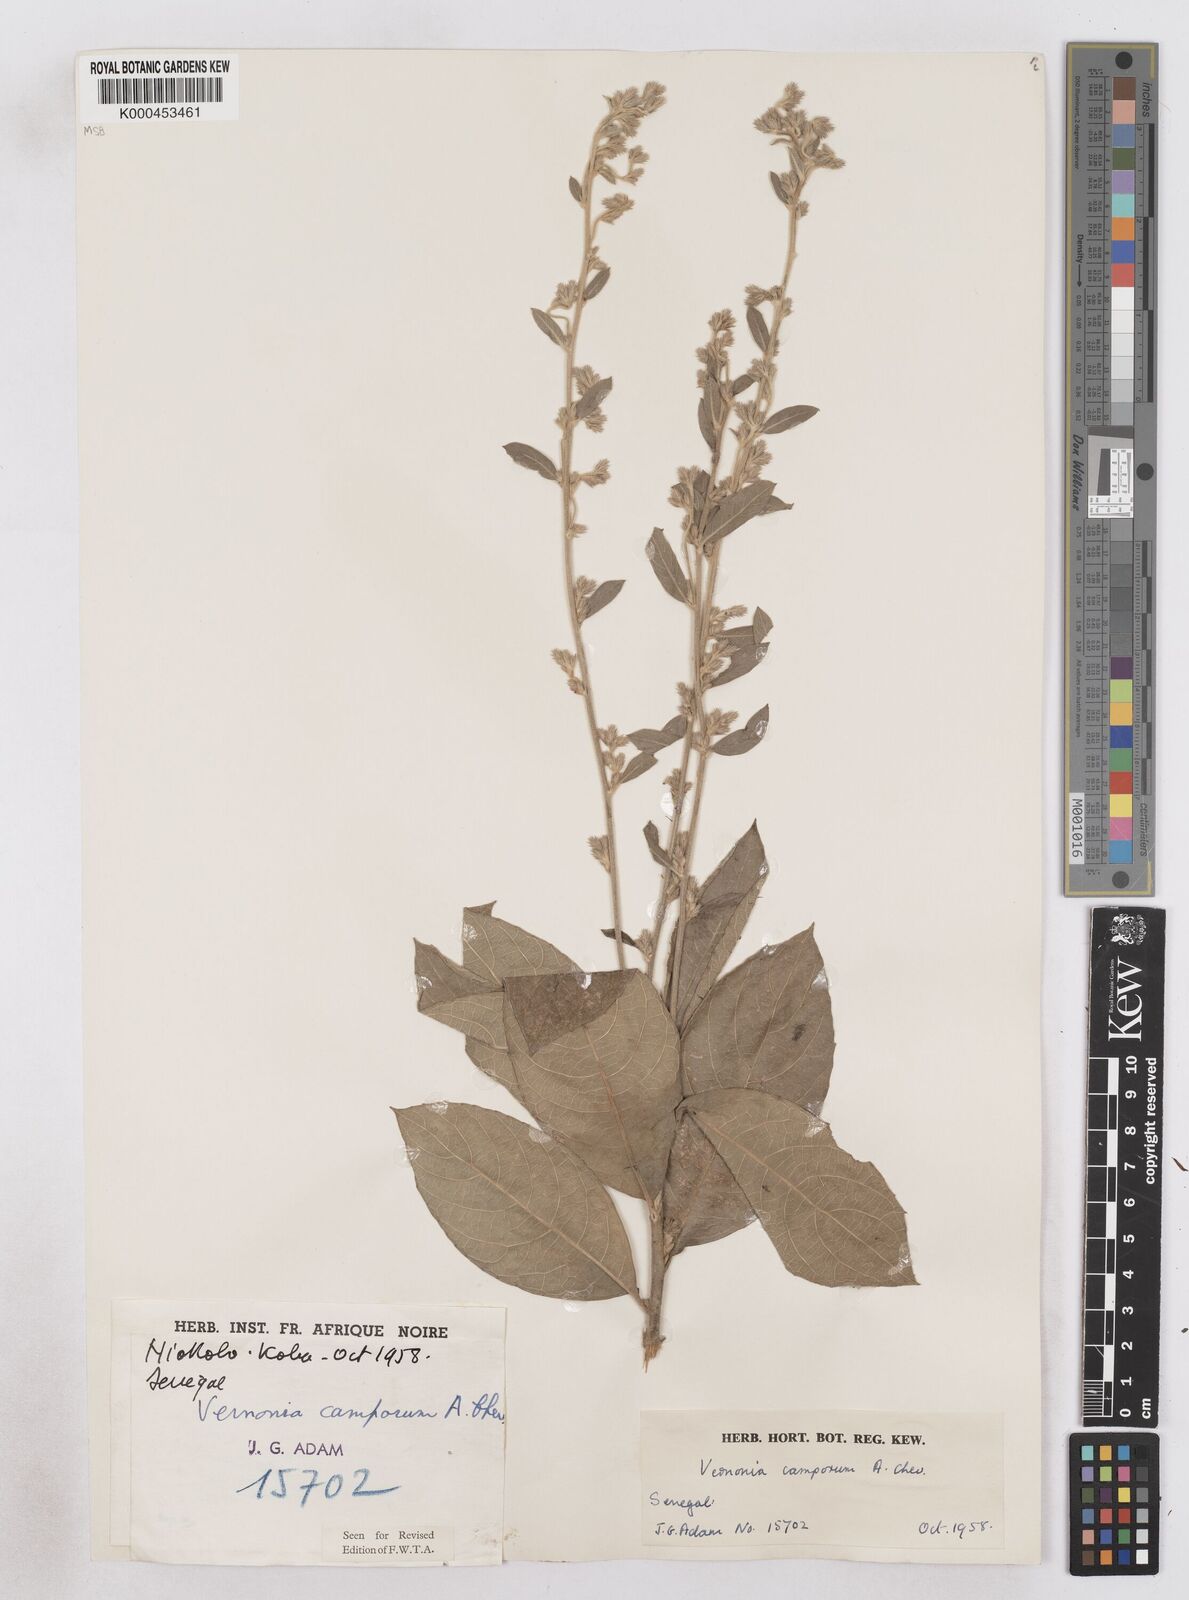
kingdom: Plantae
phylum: Tracheophyta
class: Magnoliopsida
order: Asterales
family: Asteraceae
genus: Vernoniastrum
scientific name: Vernoniastrum camporum
